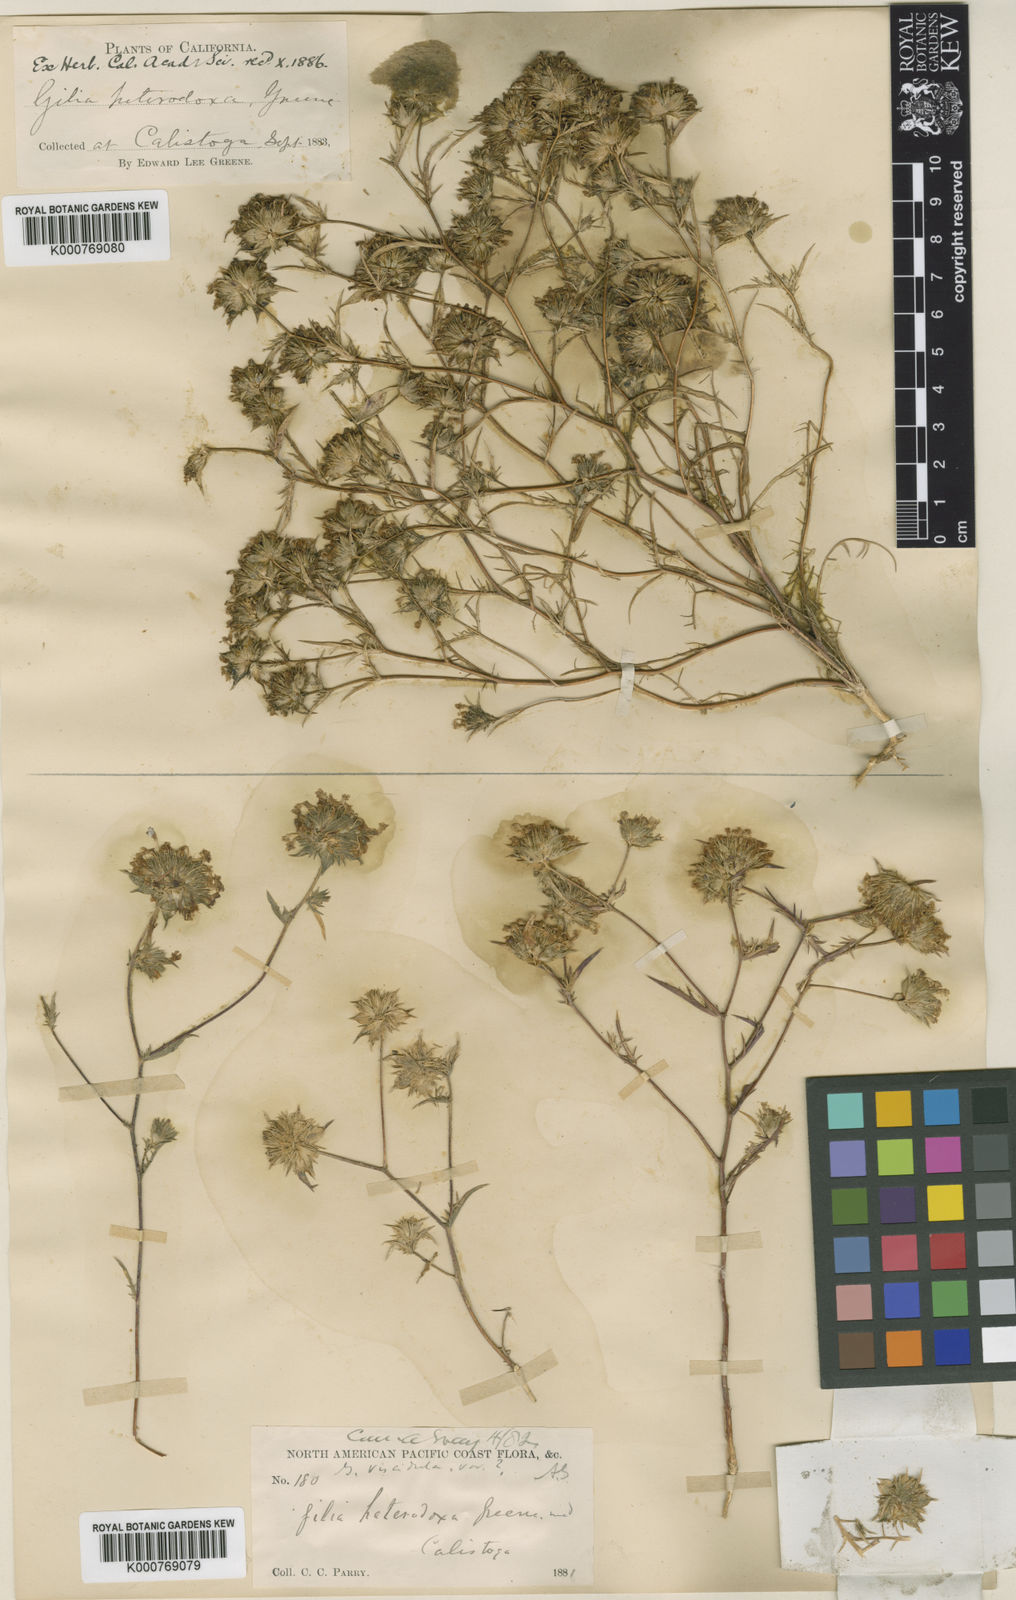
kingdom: Plantae
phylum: Tracheophyta
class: Magnoliopsida
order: Ericales
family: Polemoniaceae
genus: Navarretia
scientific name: Navarretia heterodoxa
